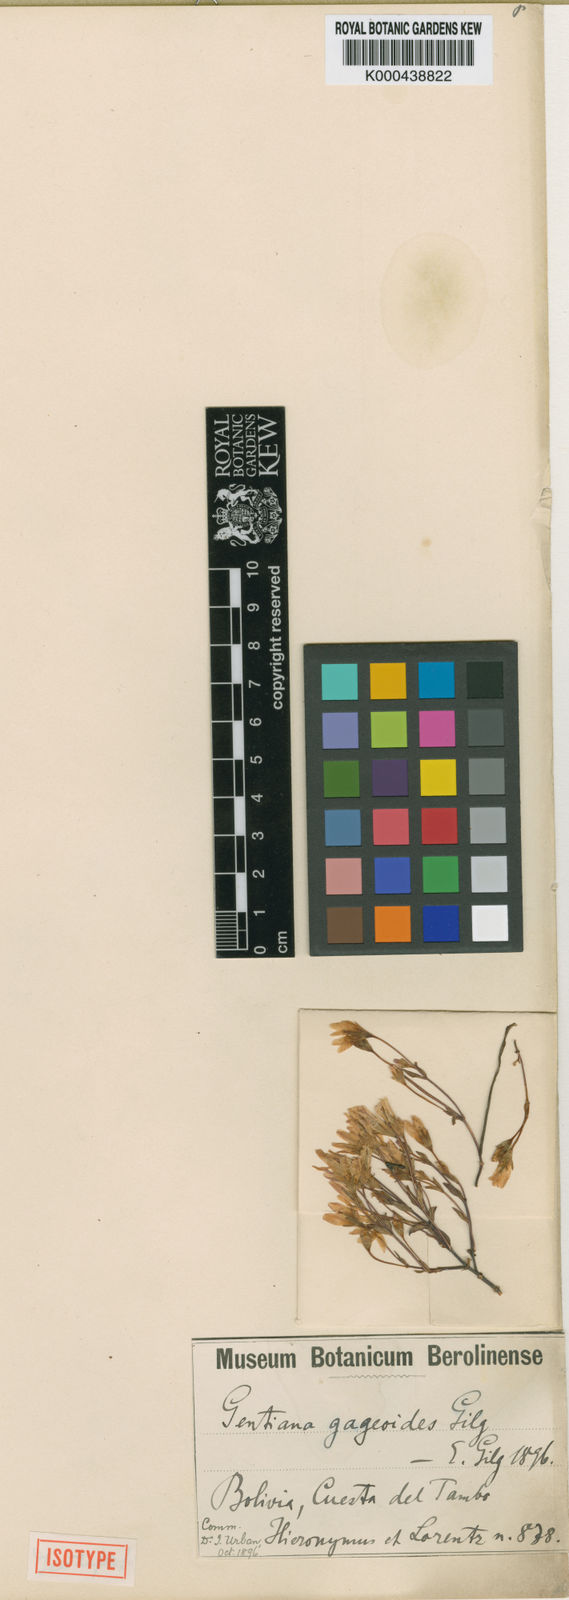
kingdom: Plantae
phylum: Tracheophyta
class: Magnoliopsida
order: Gentianales
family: Gentianaceae
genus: Gentianella
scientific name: Gentianella gageoides
